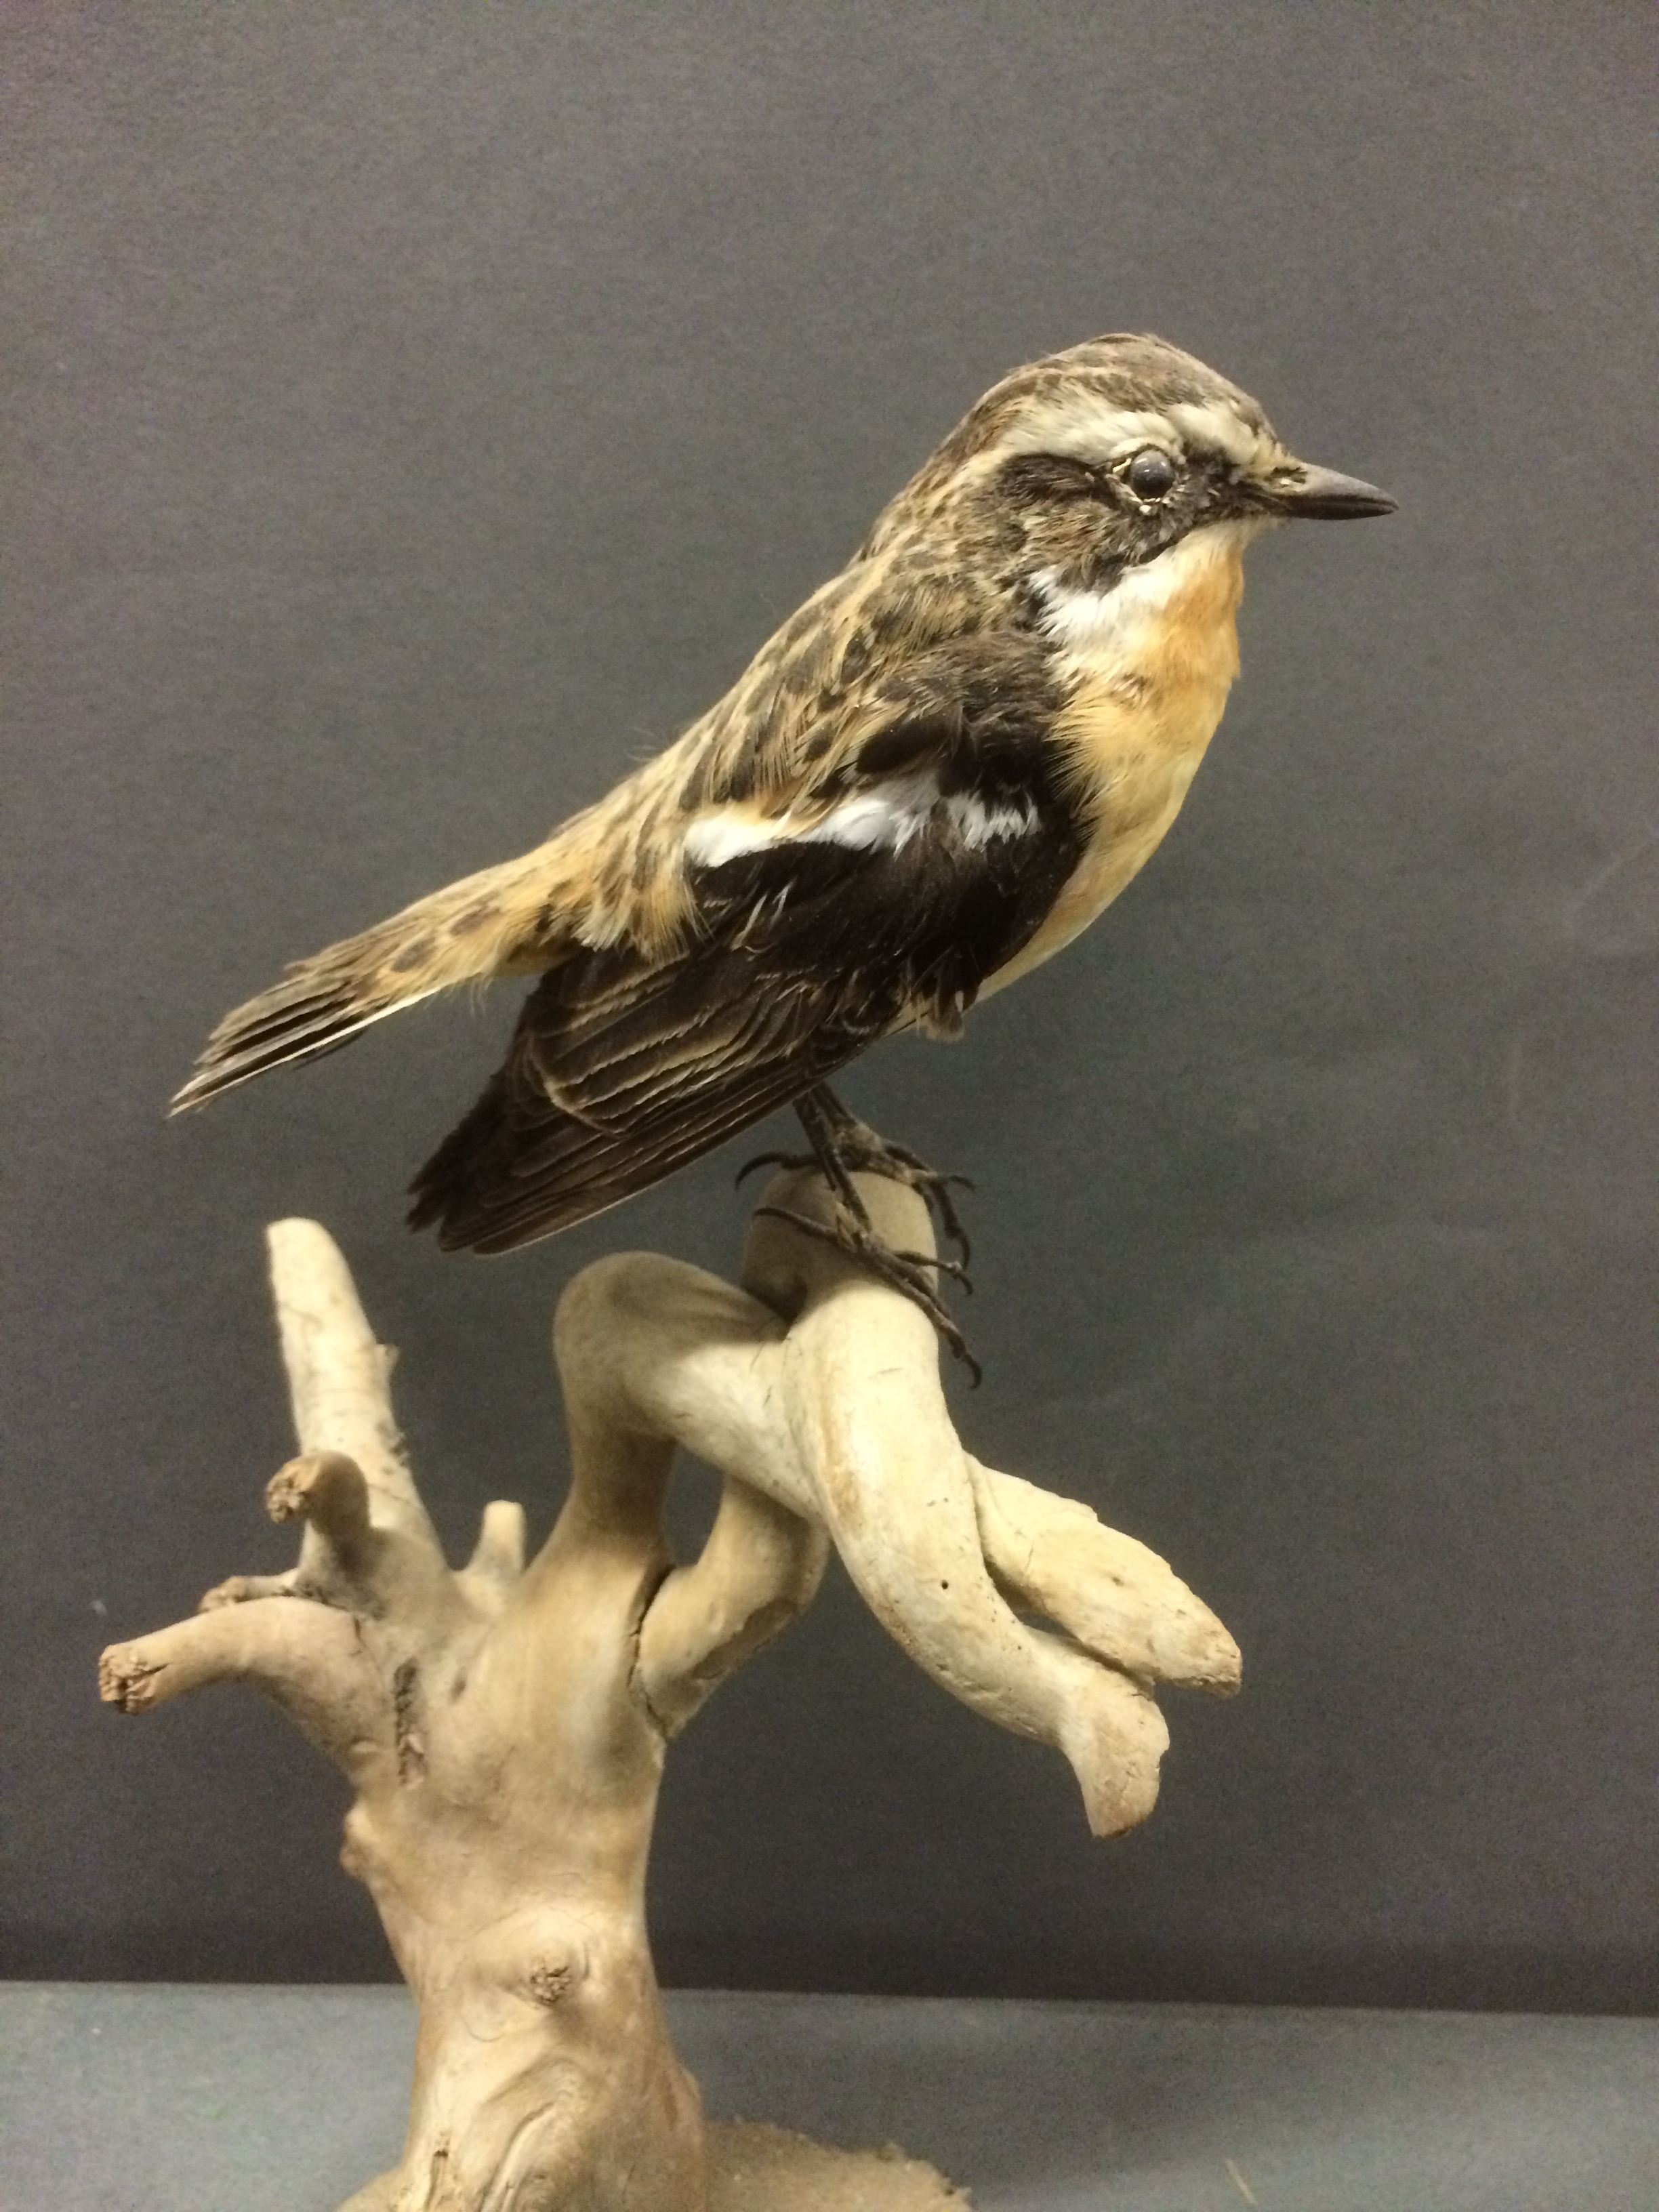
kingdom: Animalia
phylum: Chordata
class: Aves
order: Passeriformes
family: Muscicapidae
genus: Saxicola
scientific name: Saxicola rubetra
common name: Whinchat
